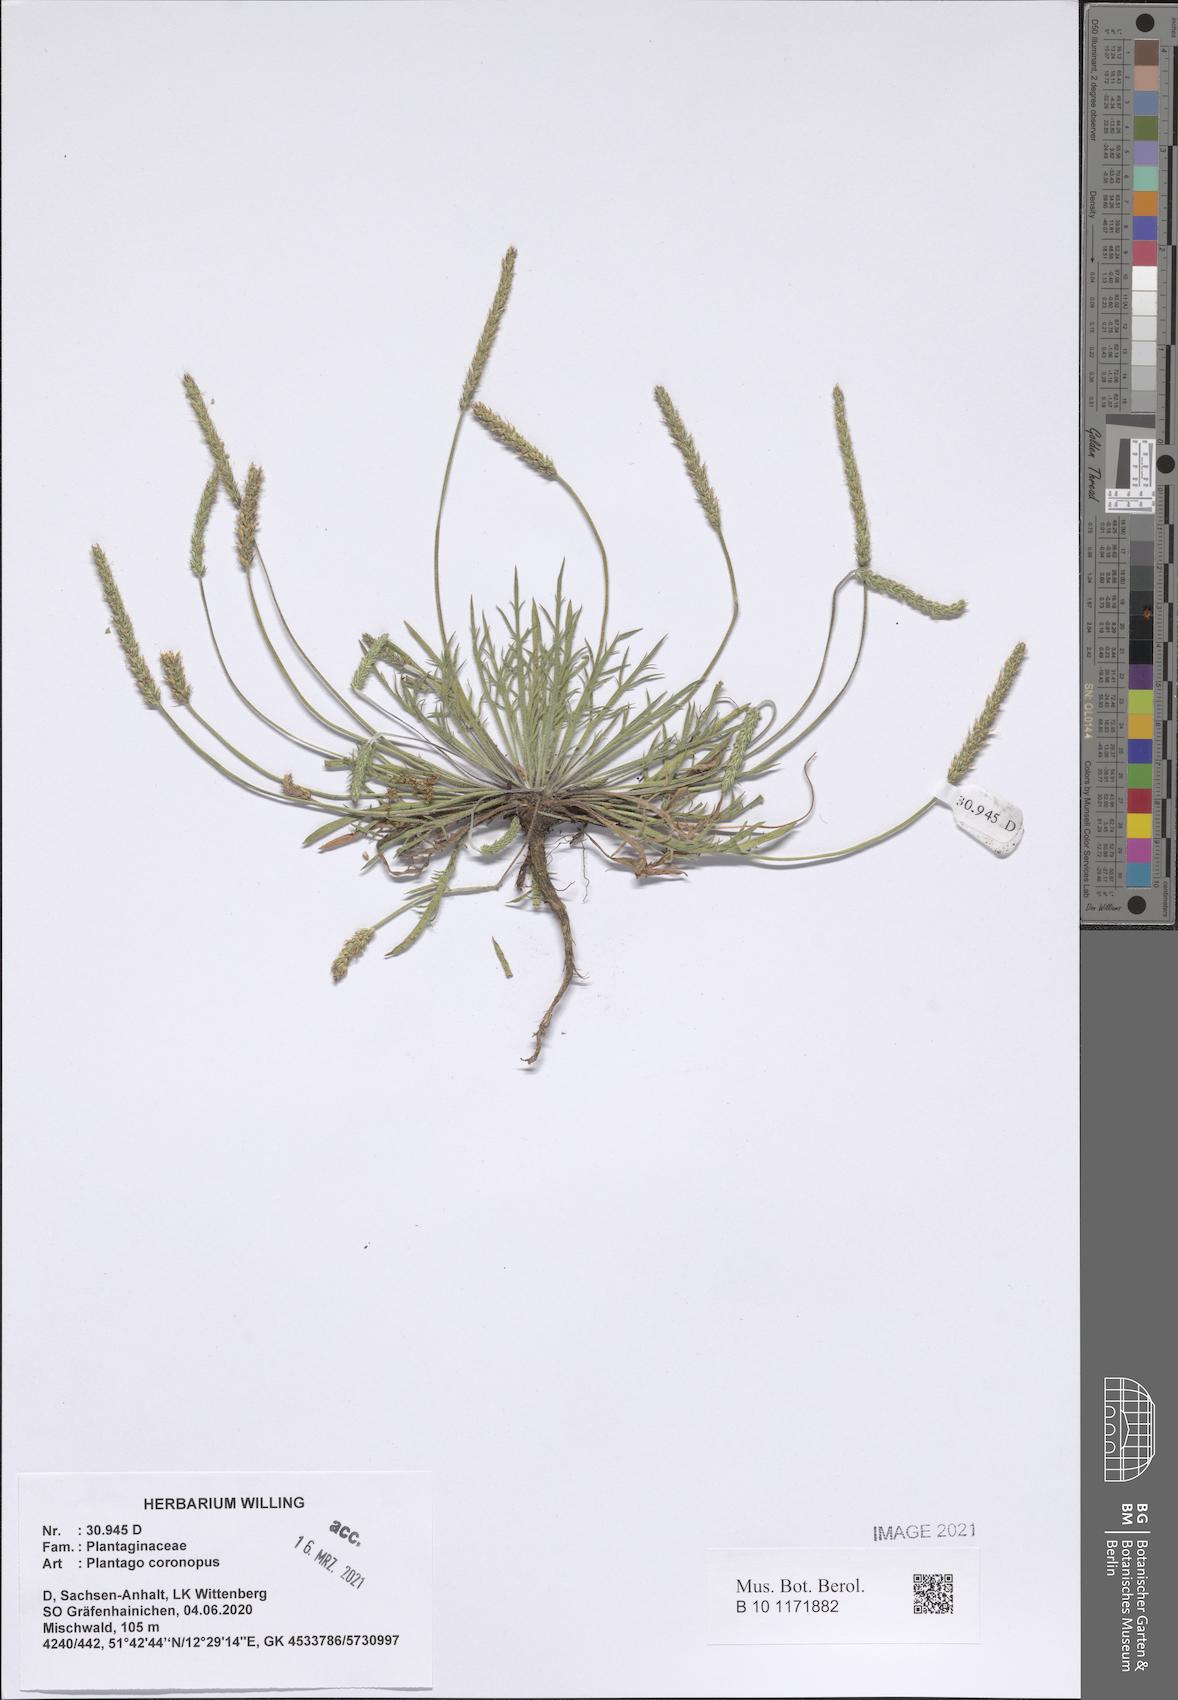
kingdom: Plantae
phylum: Tracheophyta
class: Magnoliopsida
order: Lamiales
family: Plantaginaceae
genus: Plantago
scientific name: Plantago coronopus
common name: Buck's-horn plantain
